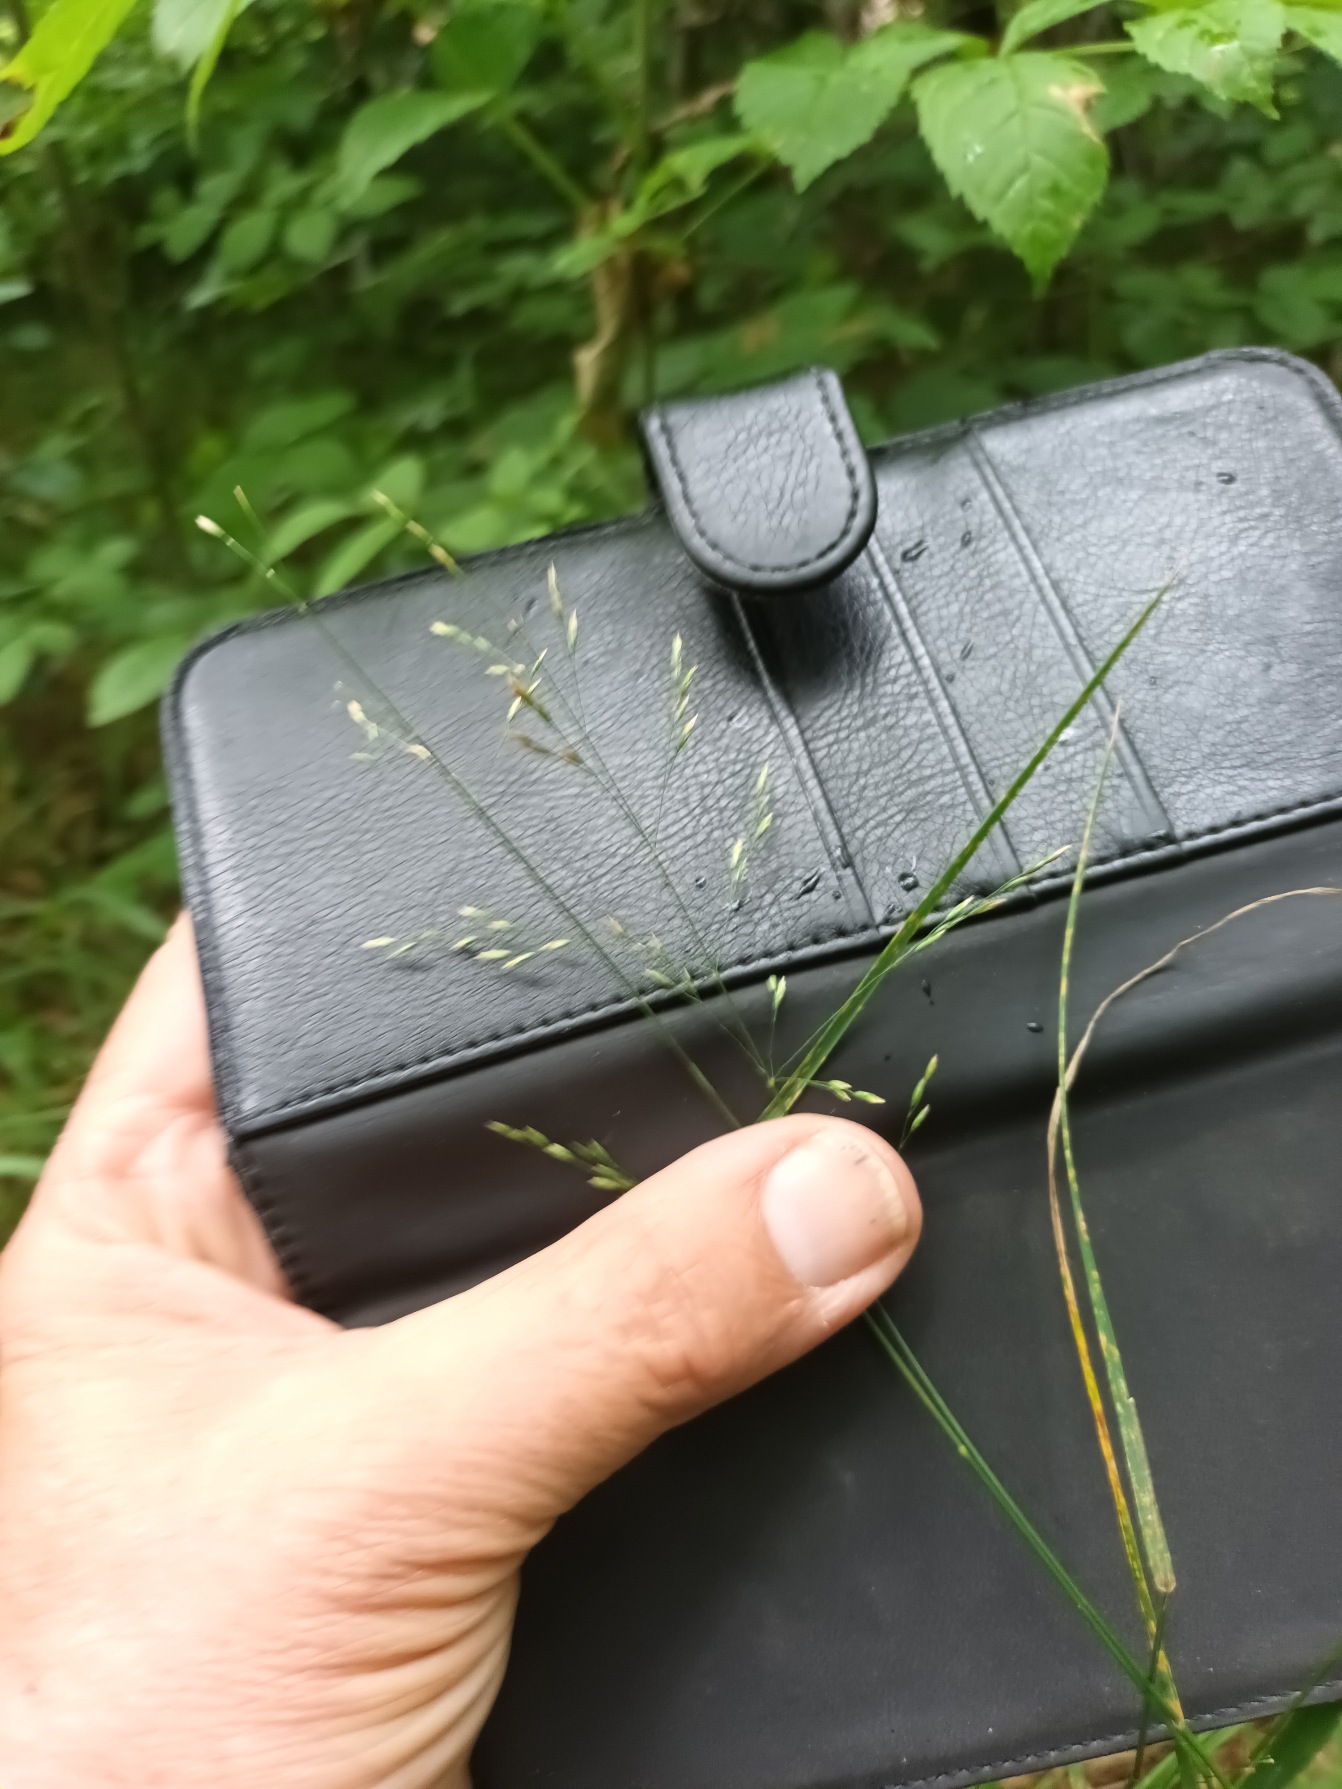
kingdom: Plantae
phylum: Tracheophyta
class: Liliopsida
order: Poales
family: Poaceae
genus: Poa
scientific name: Poa nemoralis
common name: Lund-rapgræs
